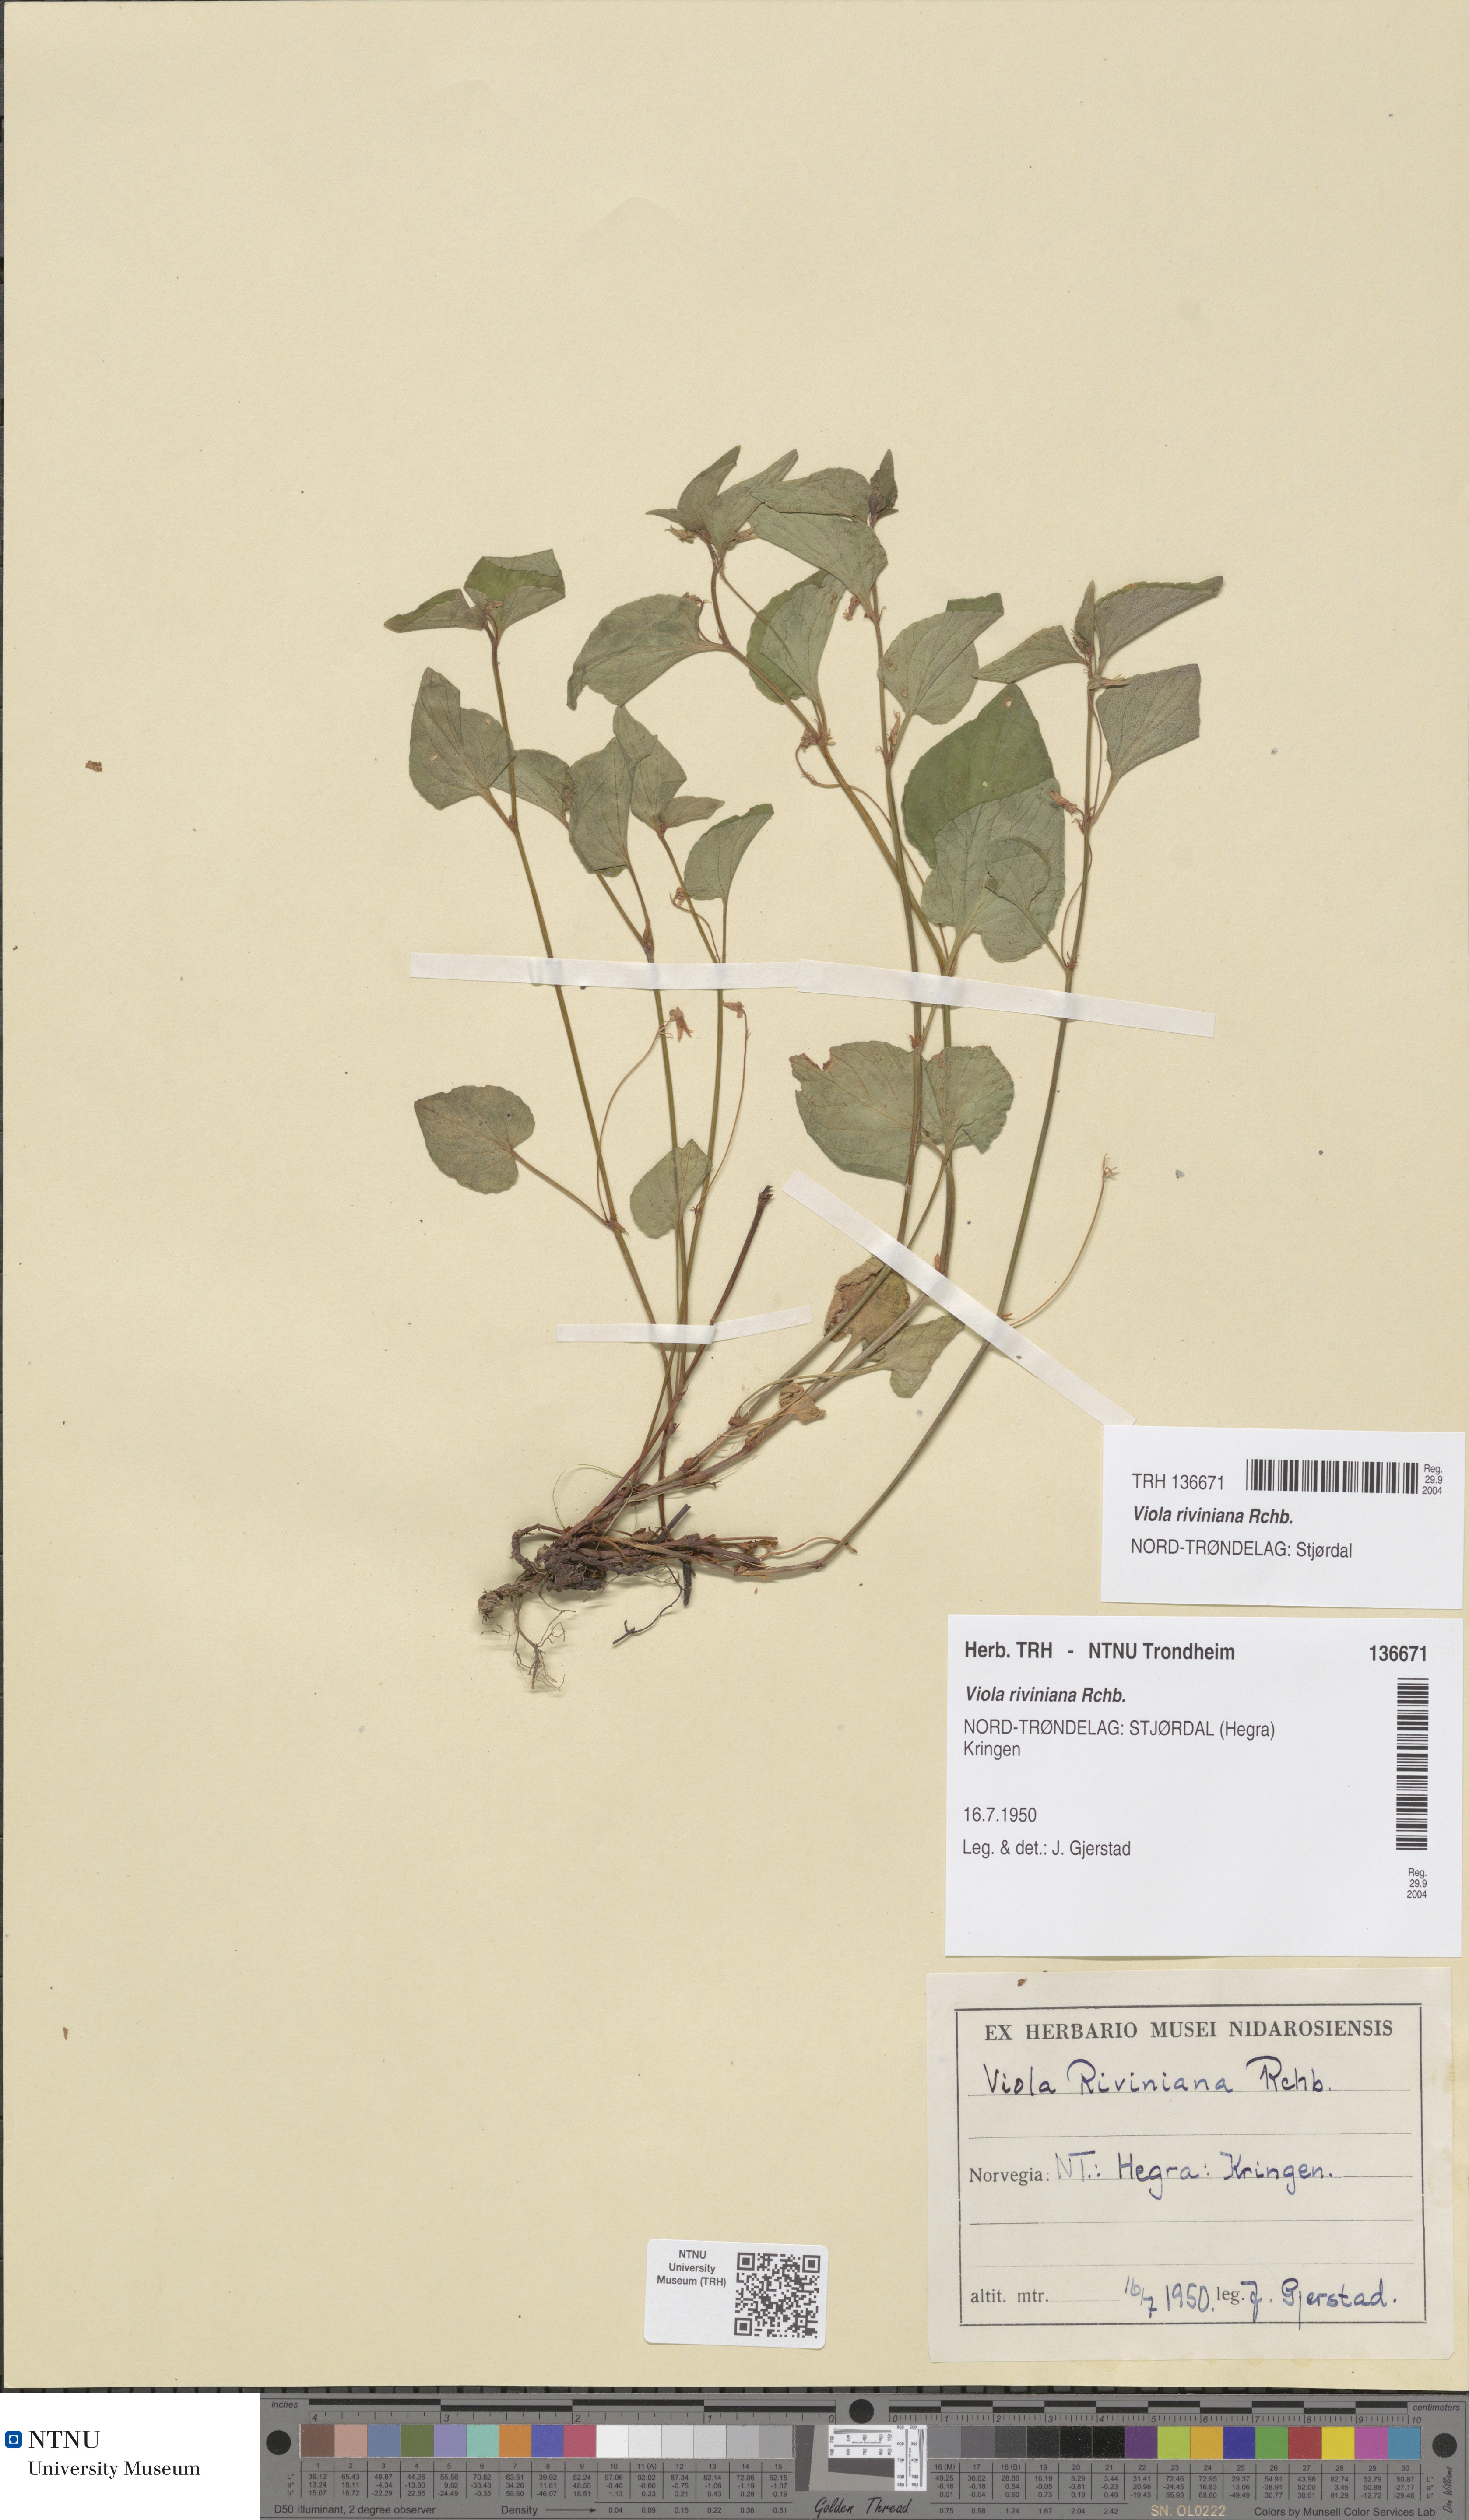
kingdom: Plantae
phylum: Tracheophyta
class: Magnoliopsida
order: Malpighiales
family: Violaceae
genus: Viola
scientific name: Viola riviniana
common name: Common dog-violet
